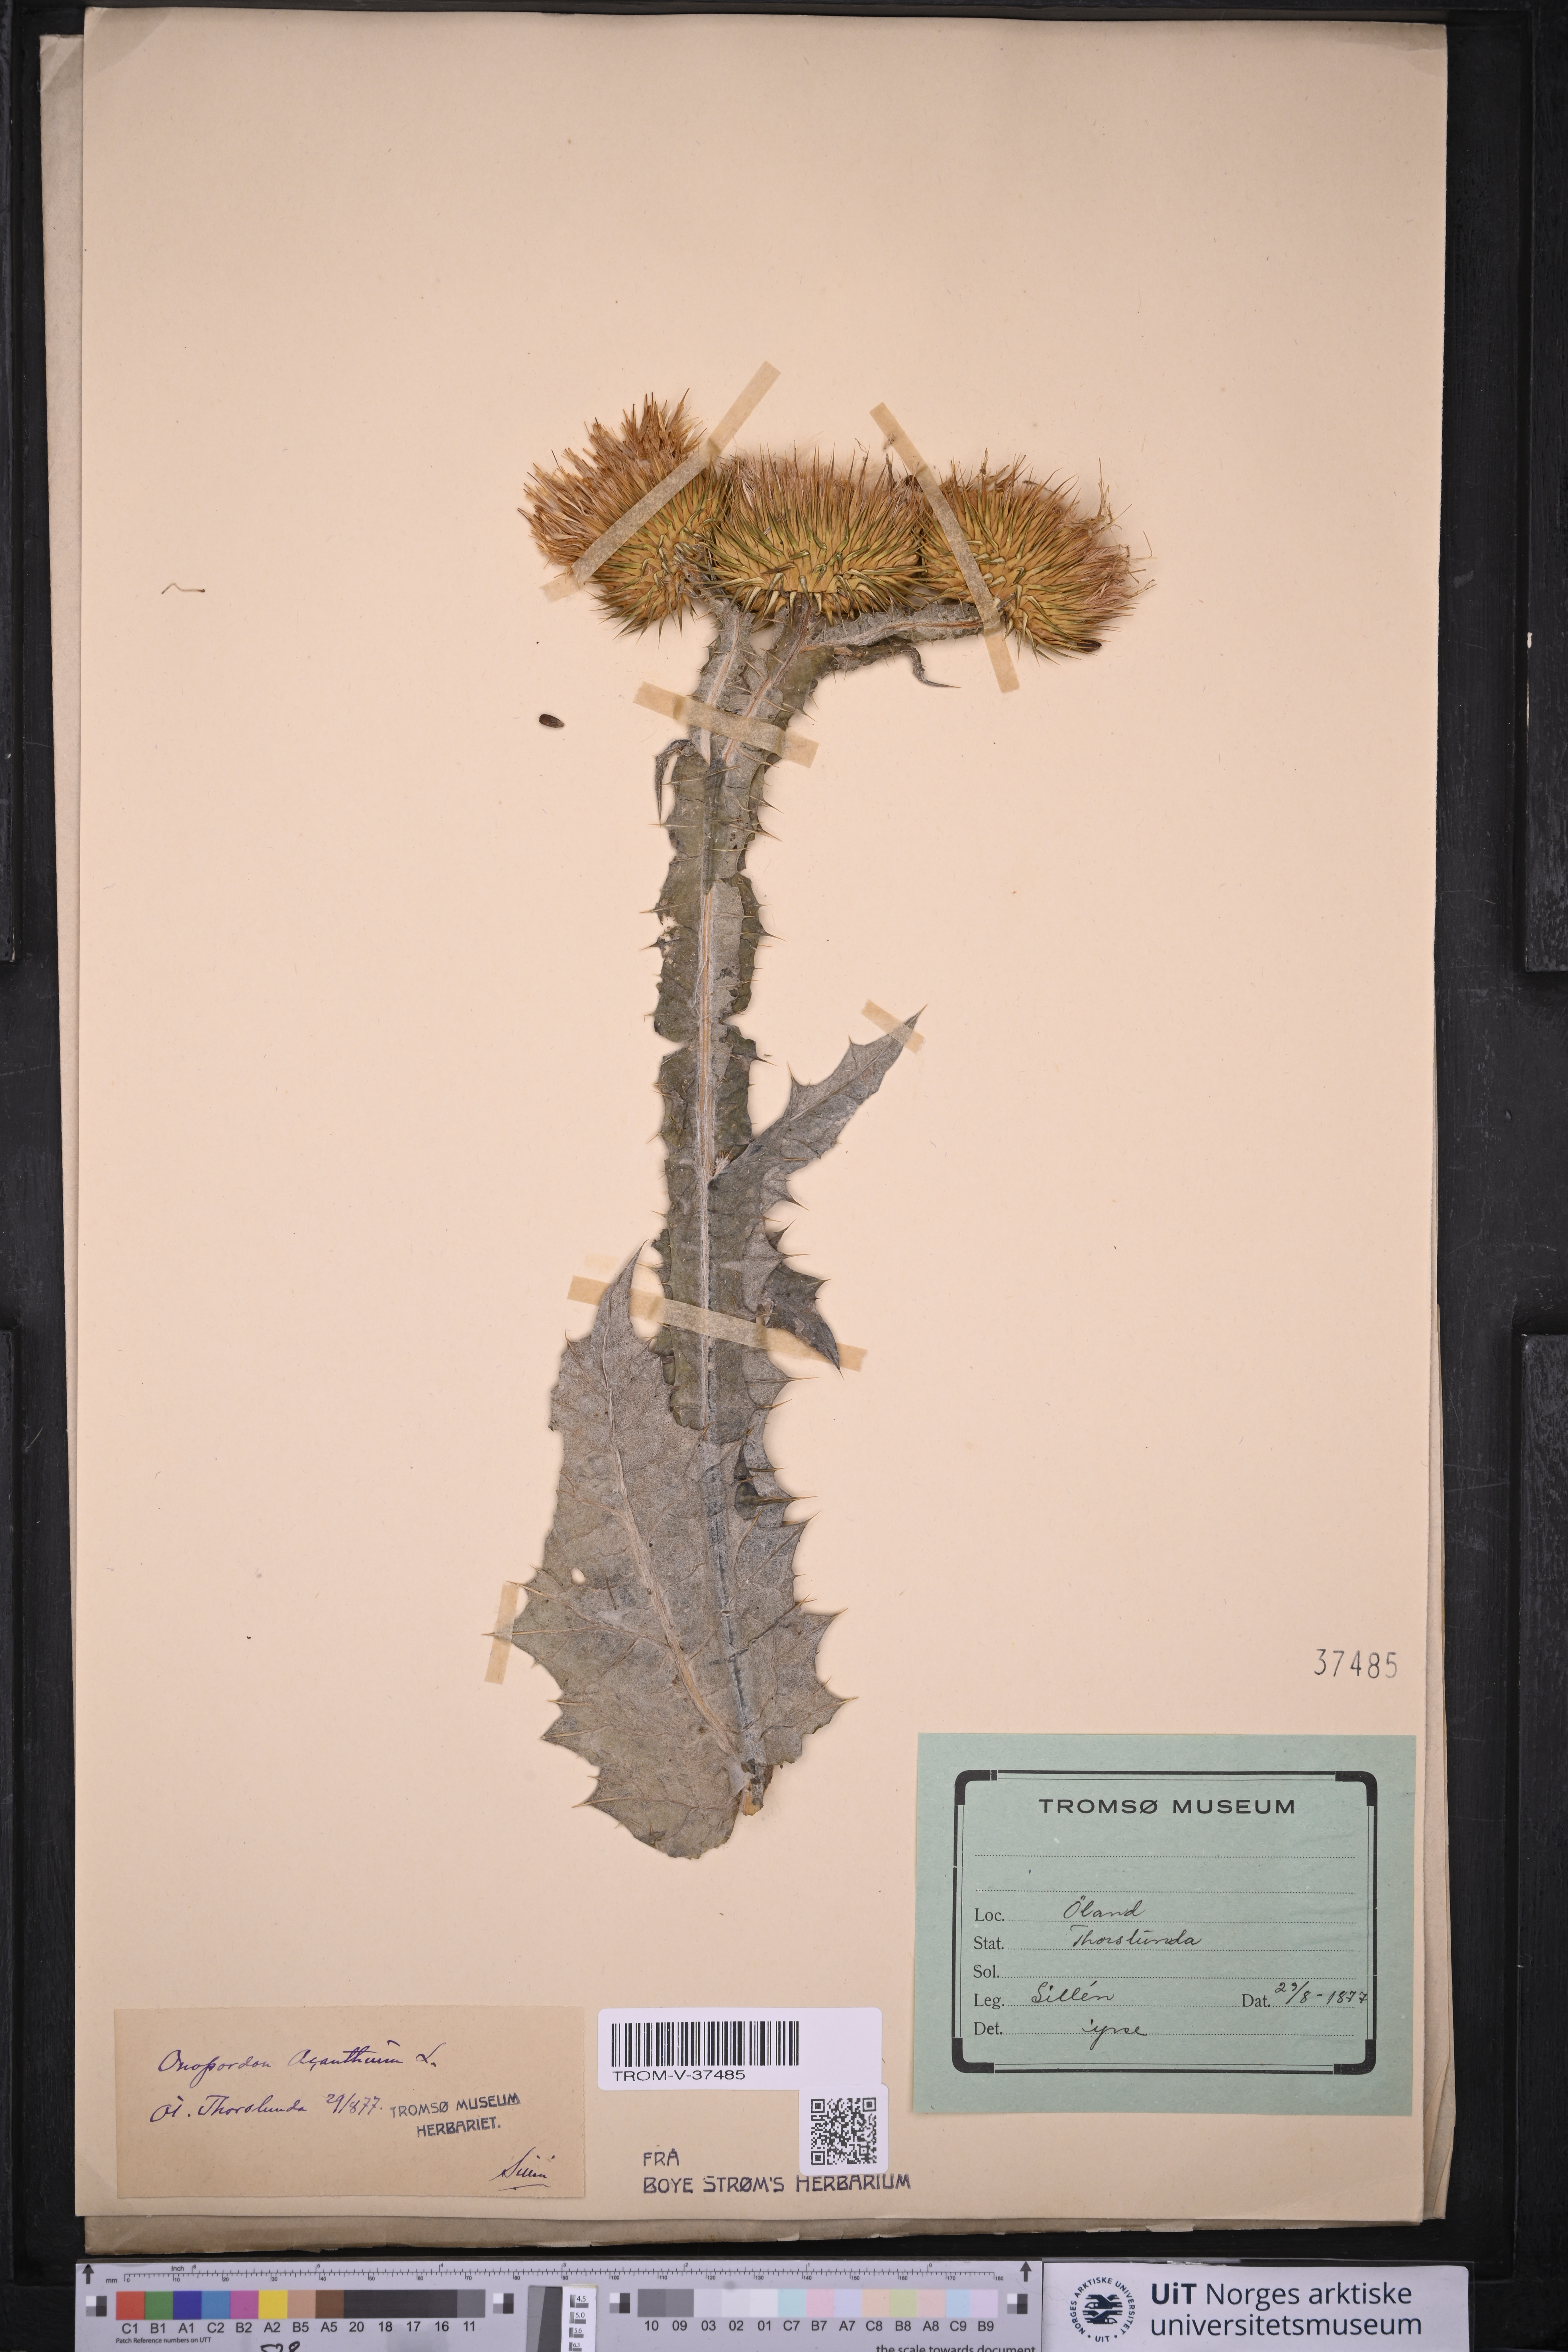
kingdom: Plantae
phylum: Tracheophyta
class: Magnoliopsida
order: Asterales
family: Asteraceae
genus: Onopordum
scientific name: Onopordum acanthium
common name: Scotch thistle
